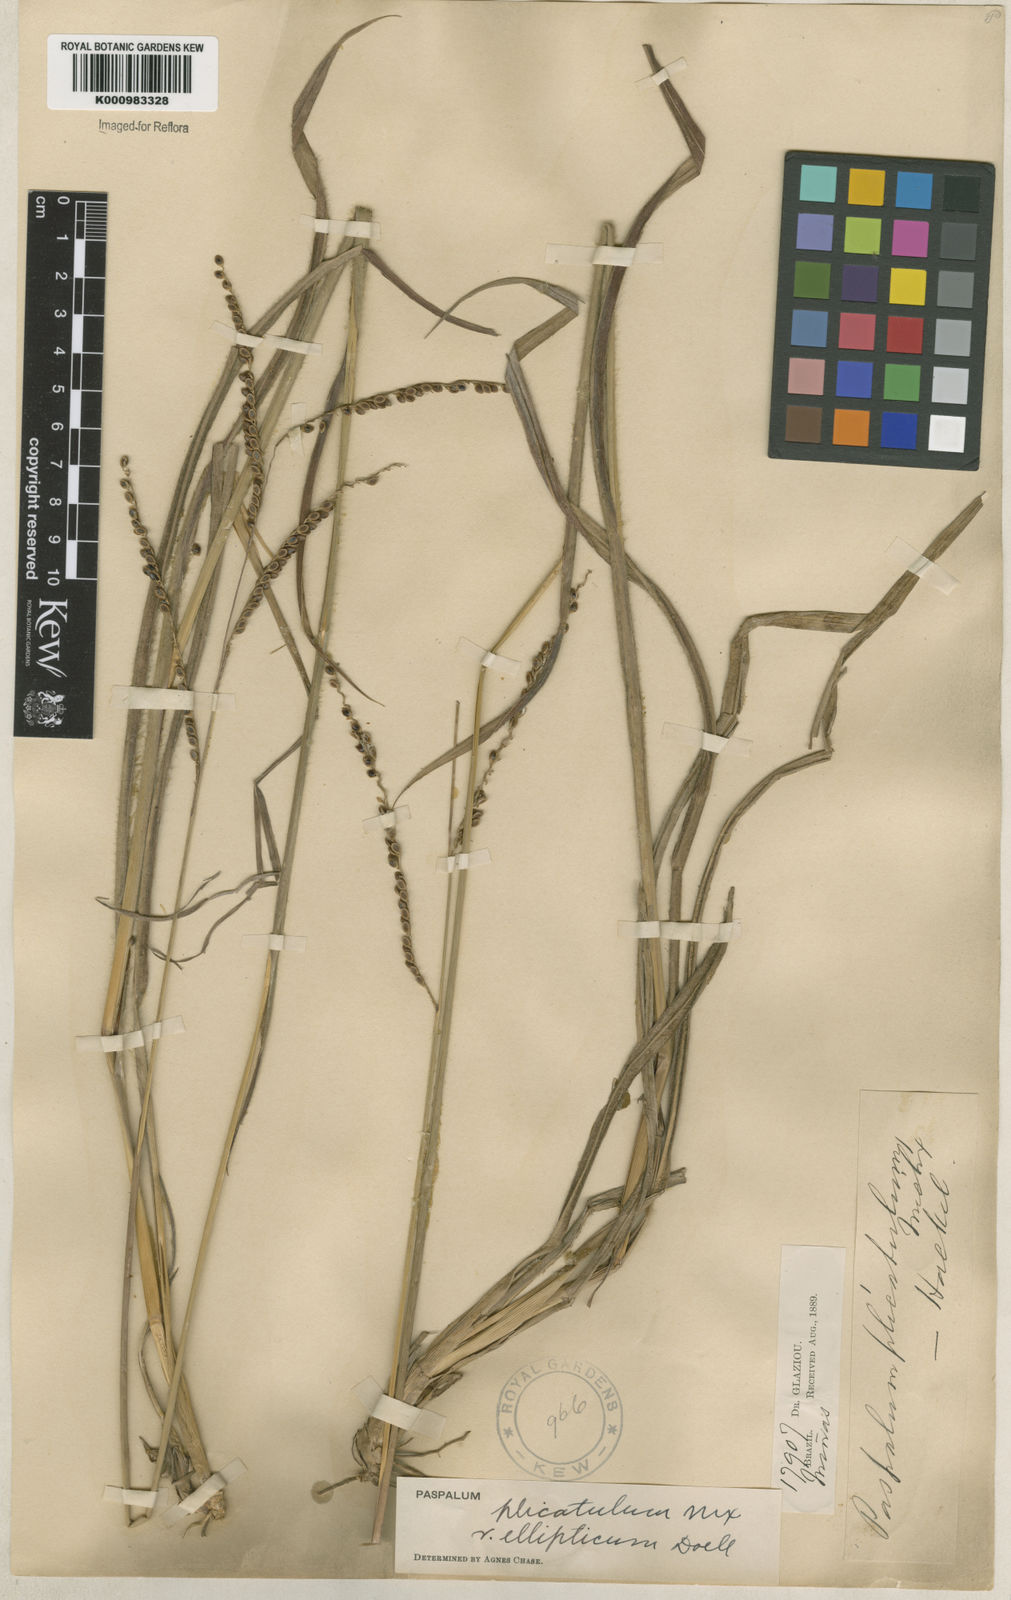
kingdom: Plantae
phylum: Tracheophyta
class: Liliopsida
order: Poales
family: Poaceae
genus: Paspalum
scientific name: Paspalum plicatulum
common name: Top paspalum
